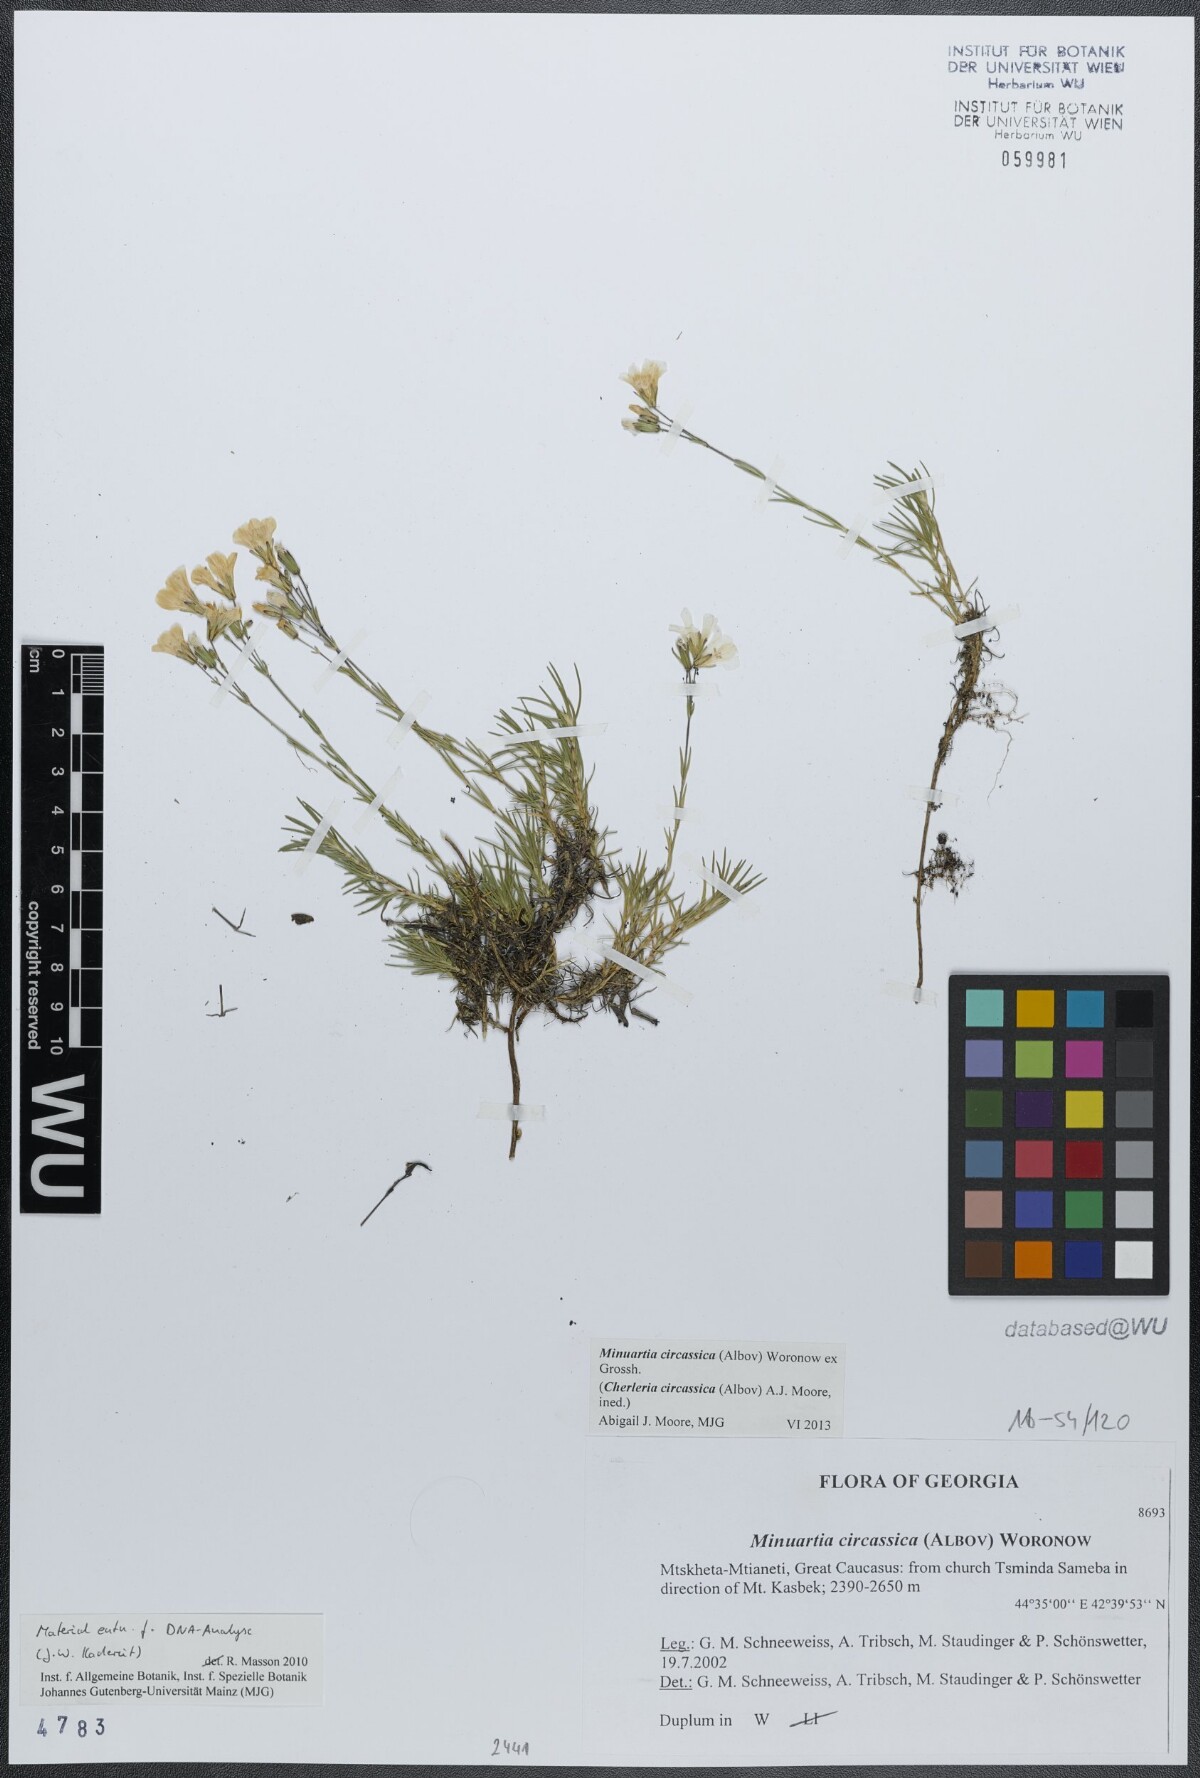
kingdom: Plantae
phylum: Tracheophyta
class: Magnoliopsida
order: Caryophyllales
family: Caryophyllaceae
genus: Cherleria
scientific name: Cherleria circassica
